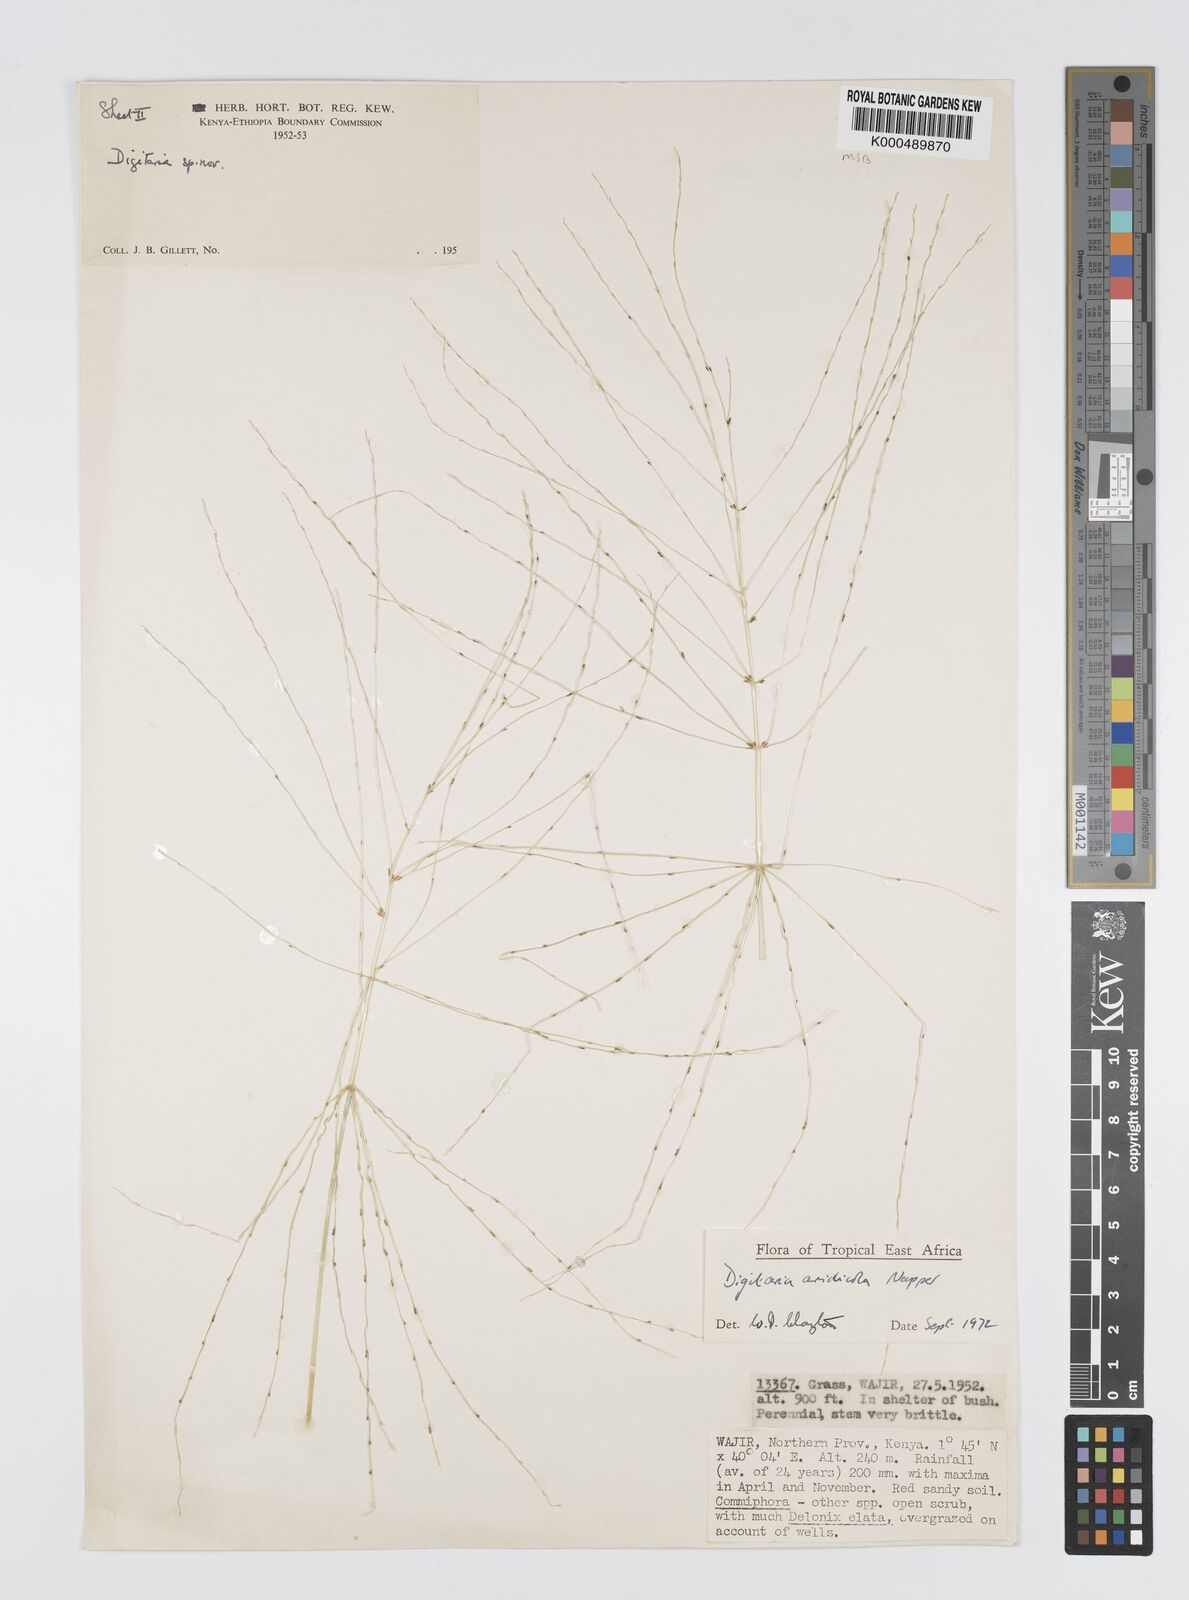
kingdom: Plantae
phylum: Tracheophyta
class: Liliopsida
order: Poales
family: Poaceae
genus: Digitaria
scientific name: Digitaria aridicola
